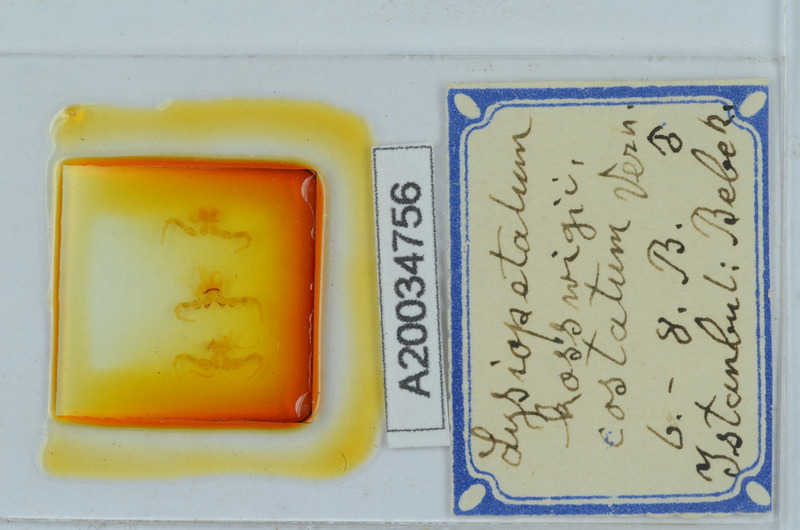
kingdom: Animalia
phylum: Arthropoda
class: Diplopoda
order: Callipodida
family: Schizopetalidae
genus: Acanthopetalum
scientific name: Acanthopetalum furculigerum
